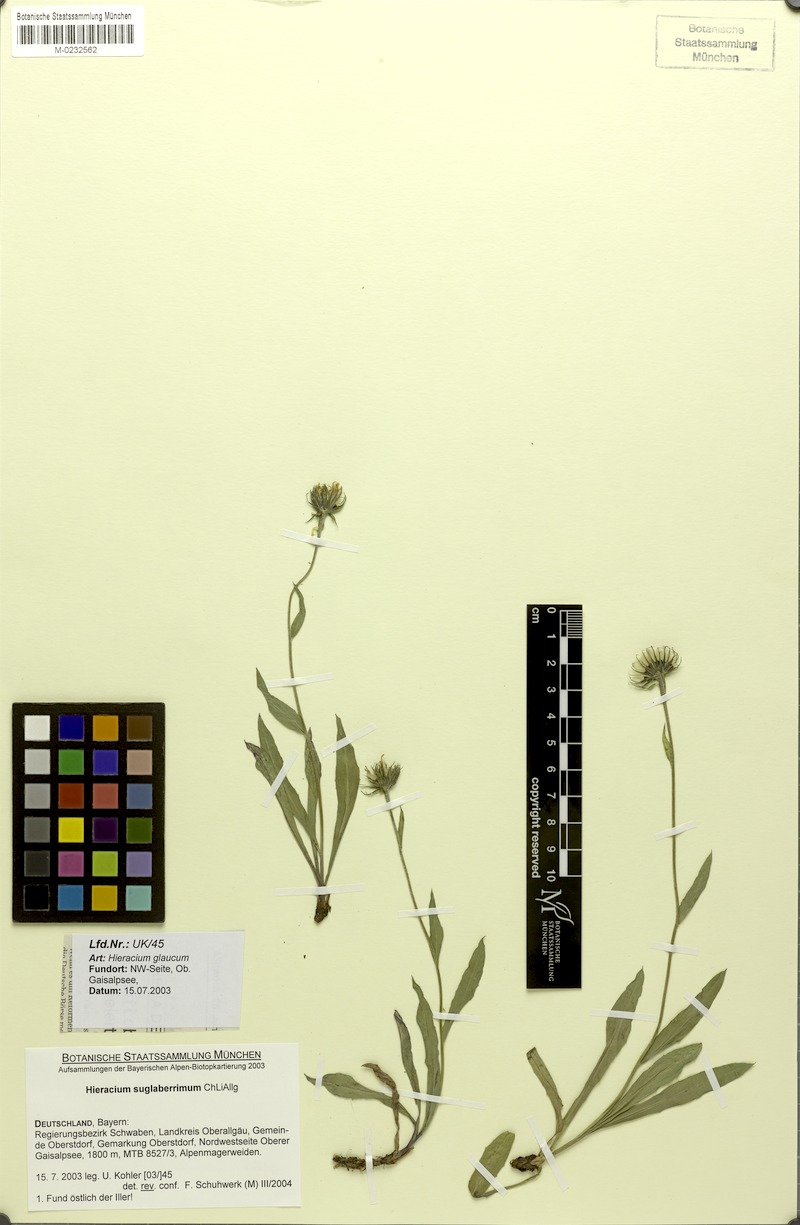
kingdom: Plantae
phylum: Tracheophyta
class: Magnoliopsida
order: Asterales
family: Asteraceae
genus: Hieracium
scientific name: Hieracium subglaberrimum
